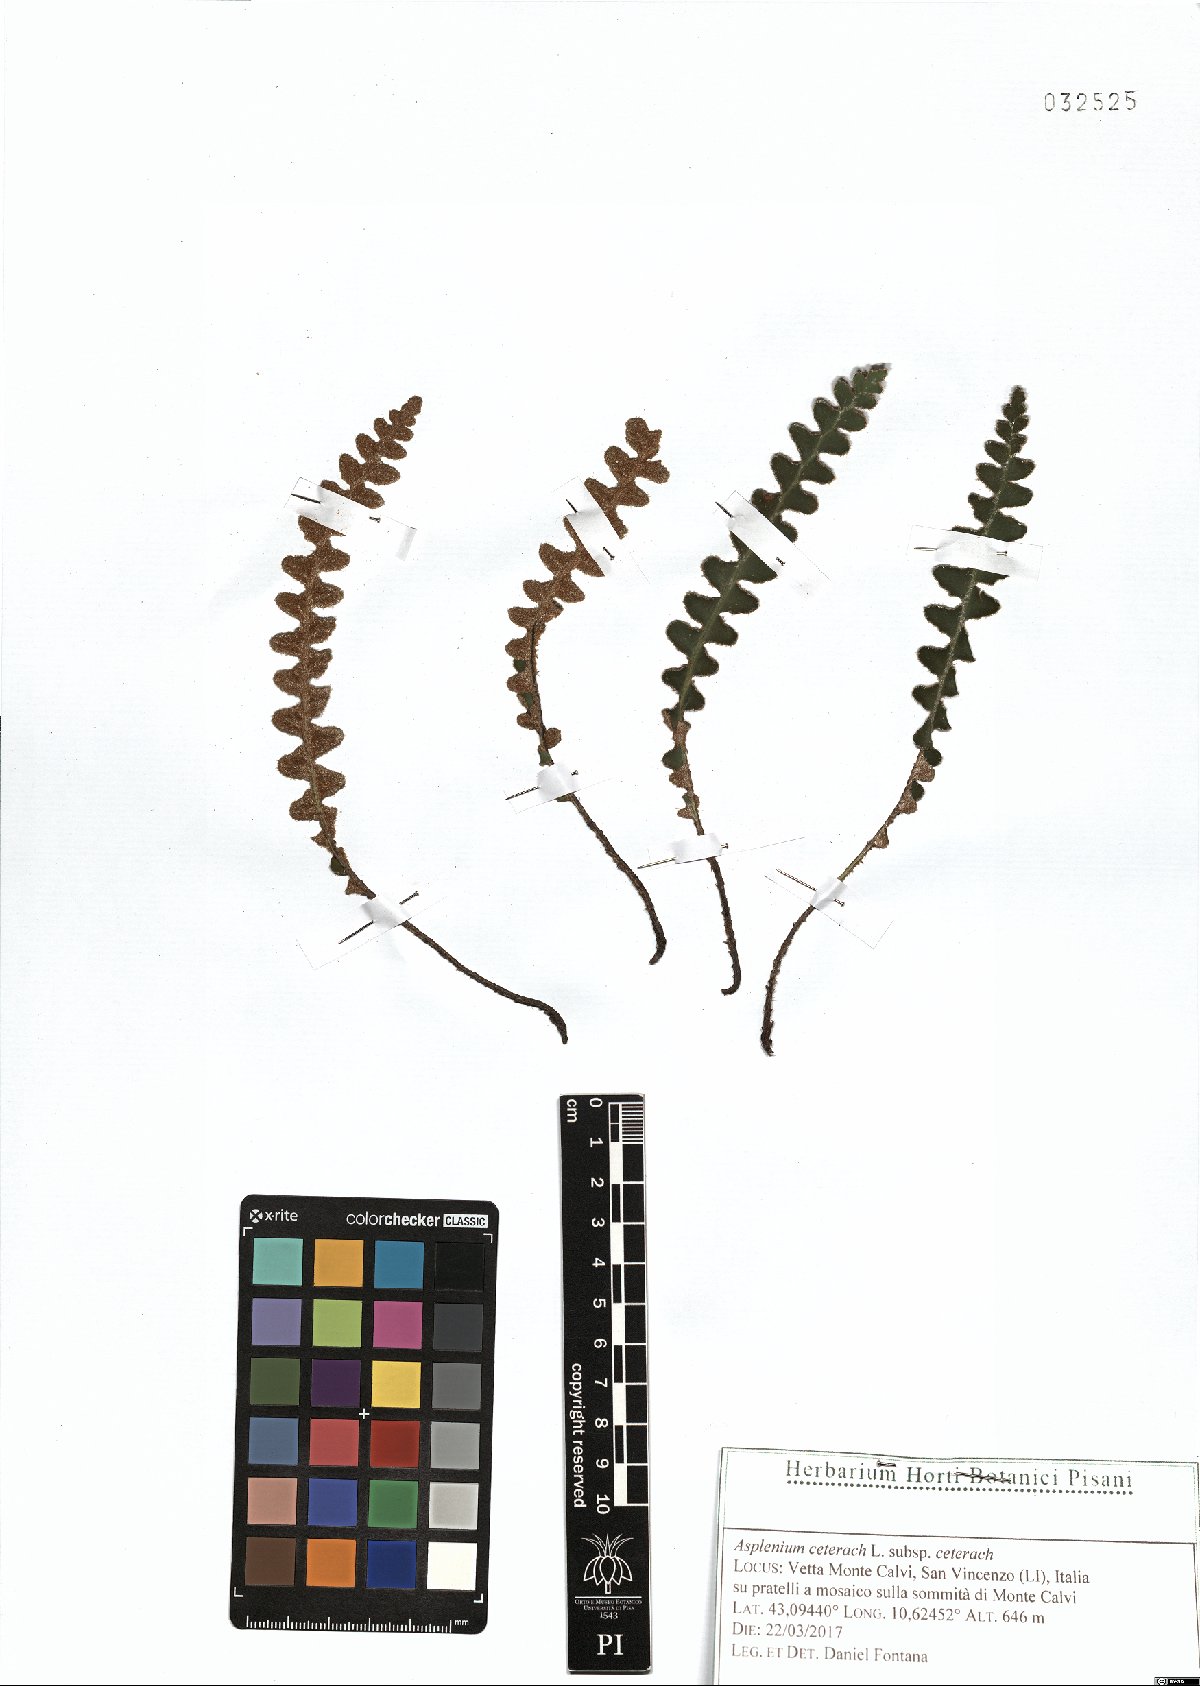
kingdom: Plantae
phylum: Tracheophyta
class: Polypodiopsida
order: Polypodiales
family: Aspleniaceae
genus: Asplenium
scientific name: Asplenium ceterach
